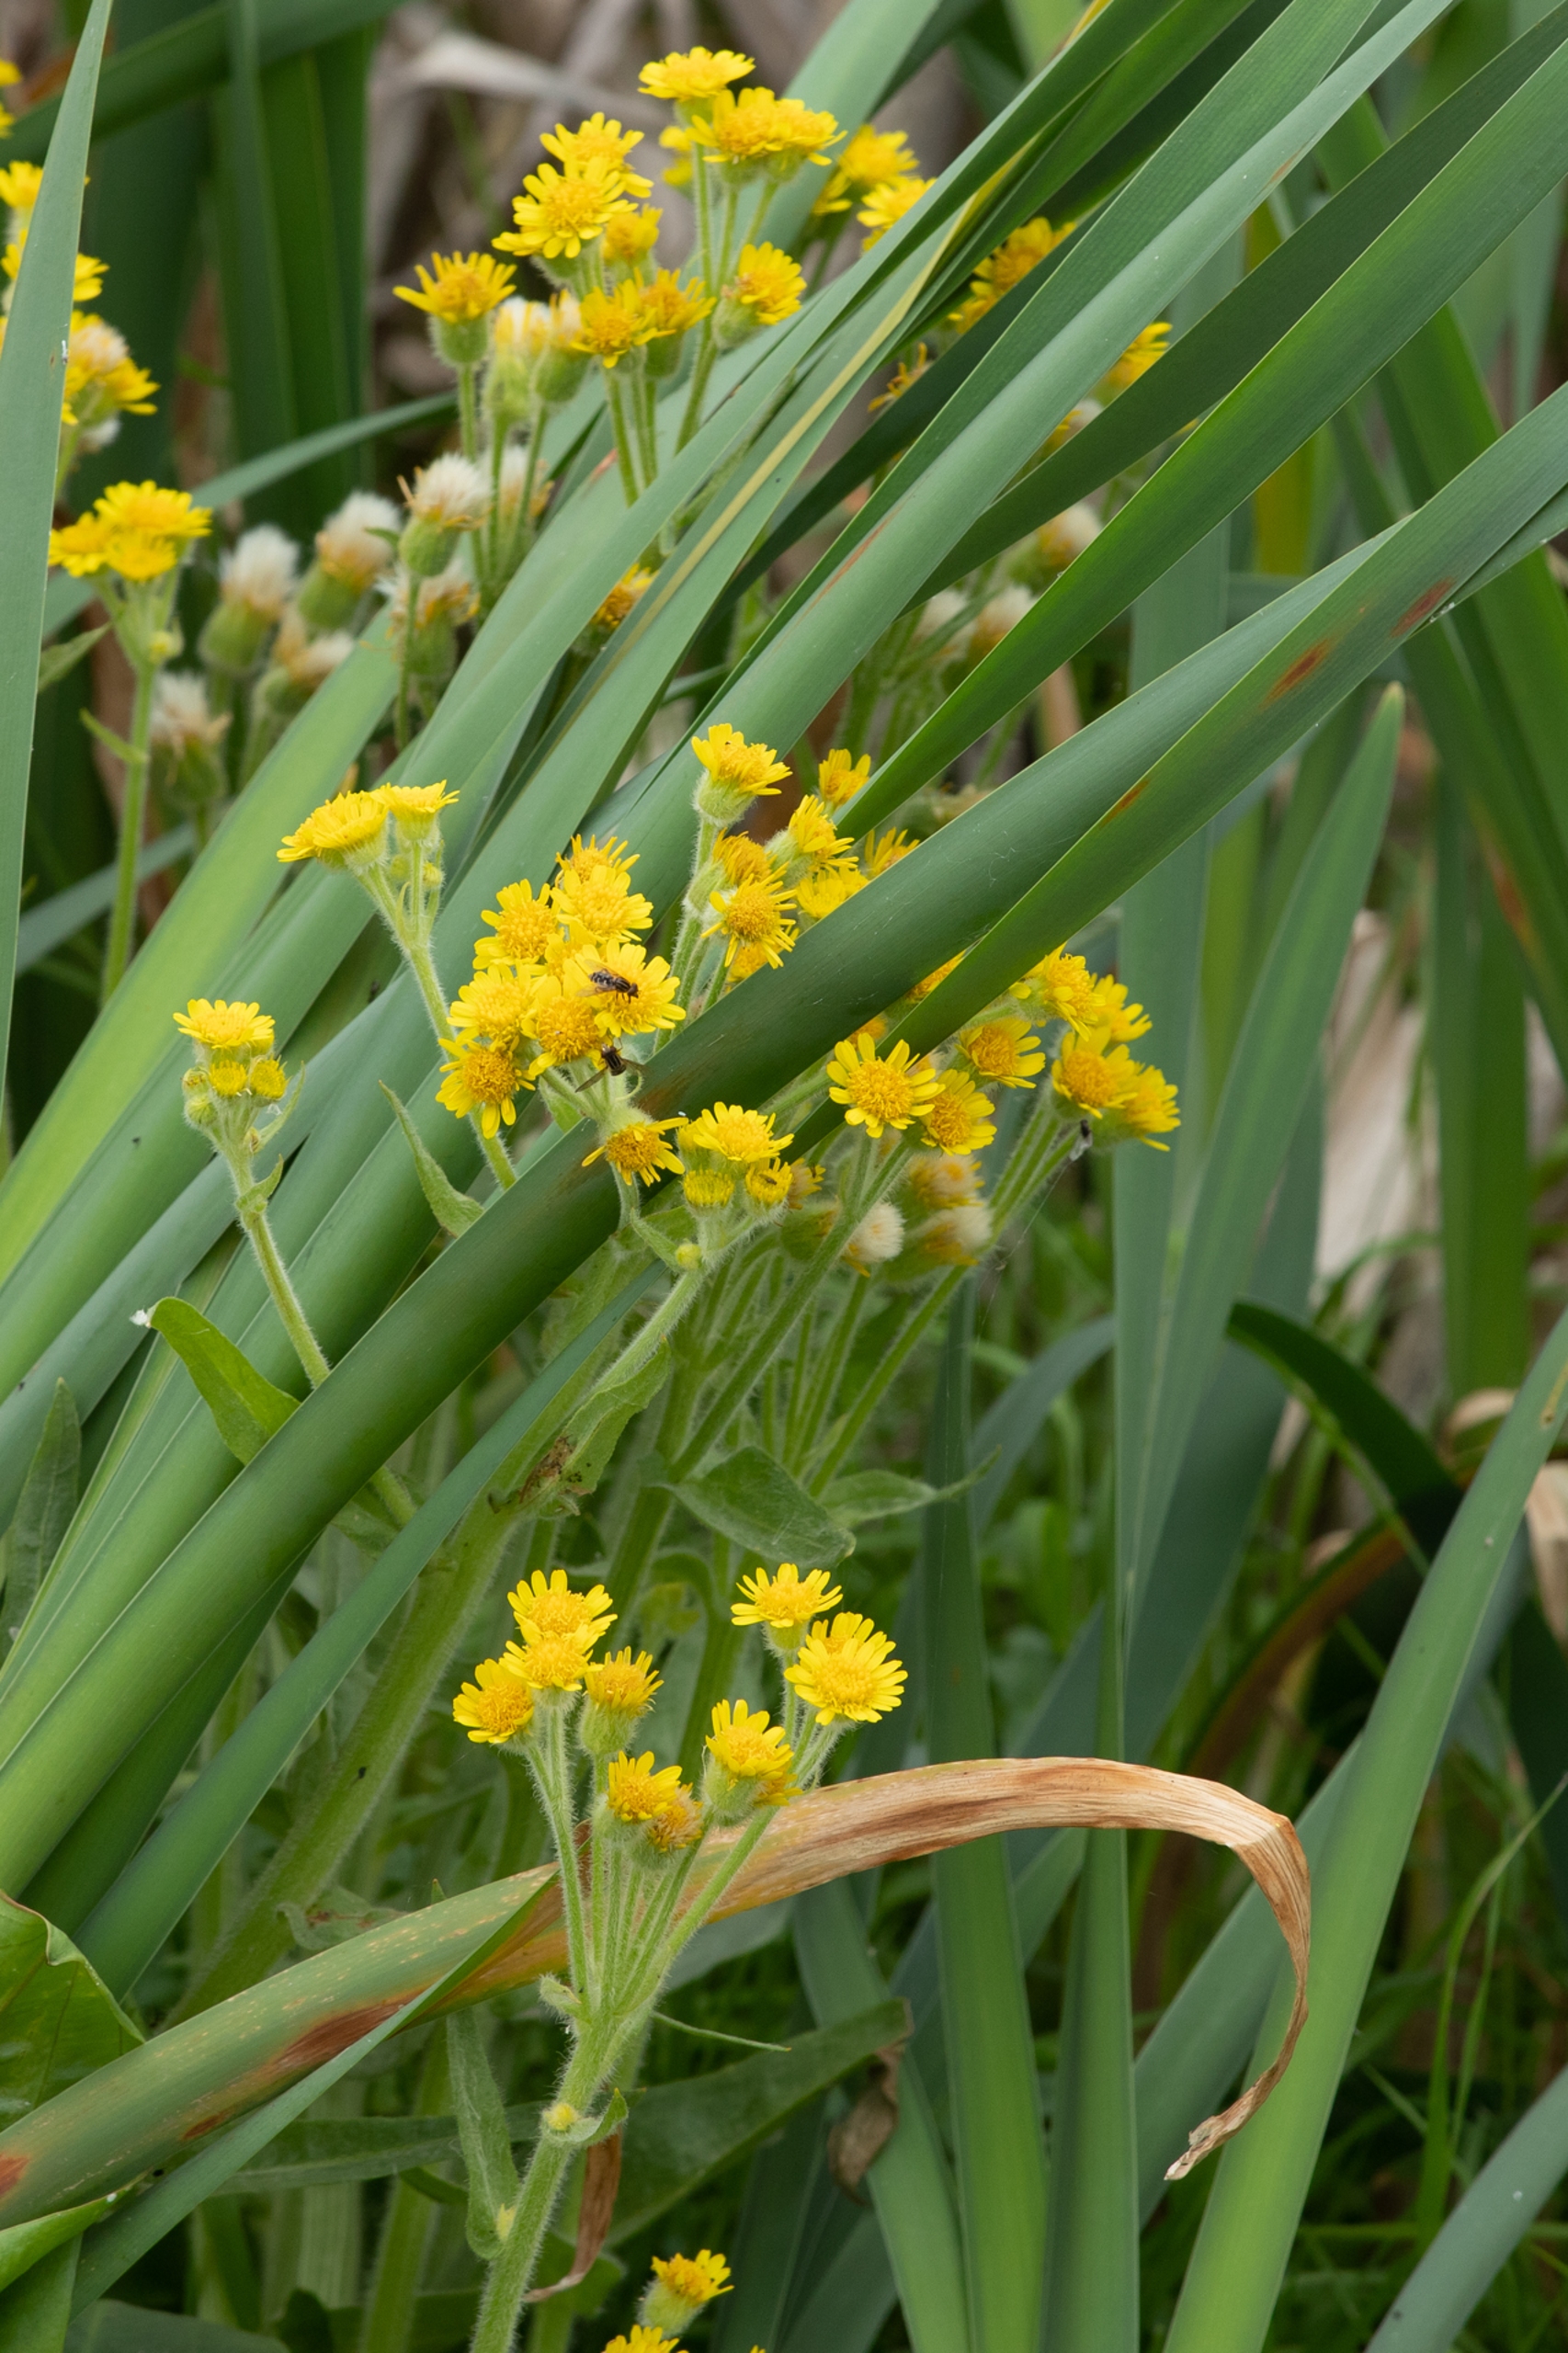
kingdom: Plantae
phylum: Tracheophyta
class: Magnoliopsida
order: Asterales
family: Asteraceae
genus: Tephroseris
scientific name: Tephroseris palustris
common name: Kær-fnokurt
